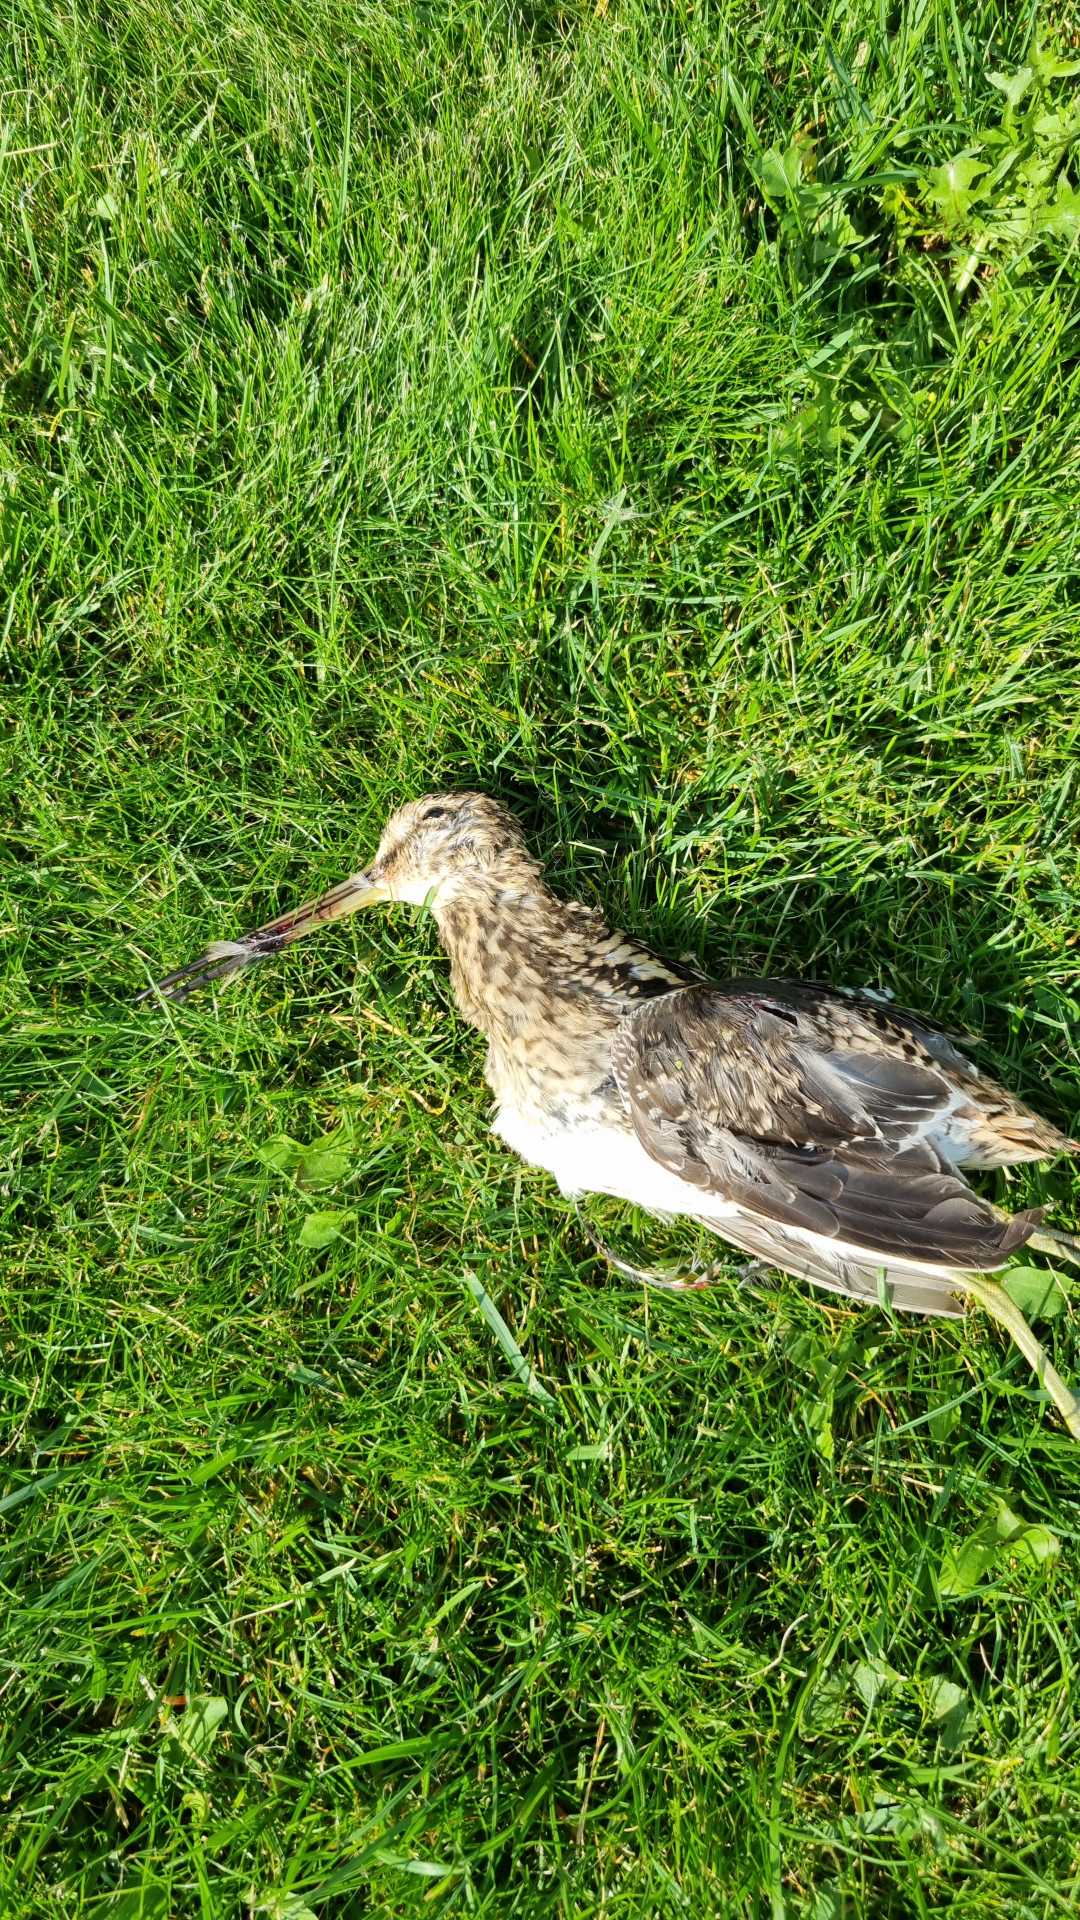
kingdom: Animalia
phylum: Chordata
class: Aves
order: Charadriiformes
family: Scolopacidae
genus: Gallinago
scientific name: Gallinago gallinago
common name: Dobbeltbekkasin
